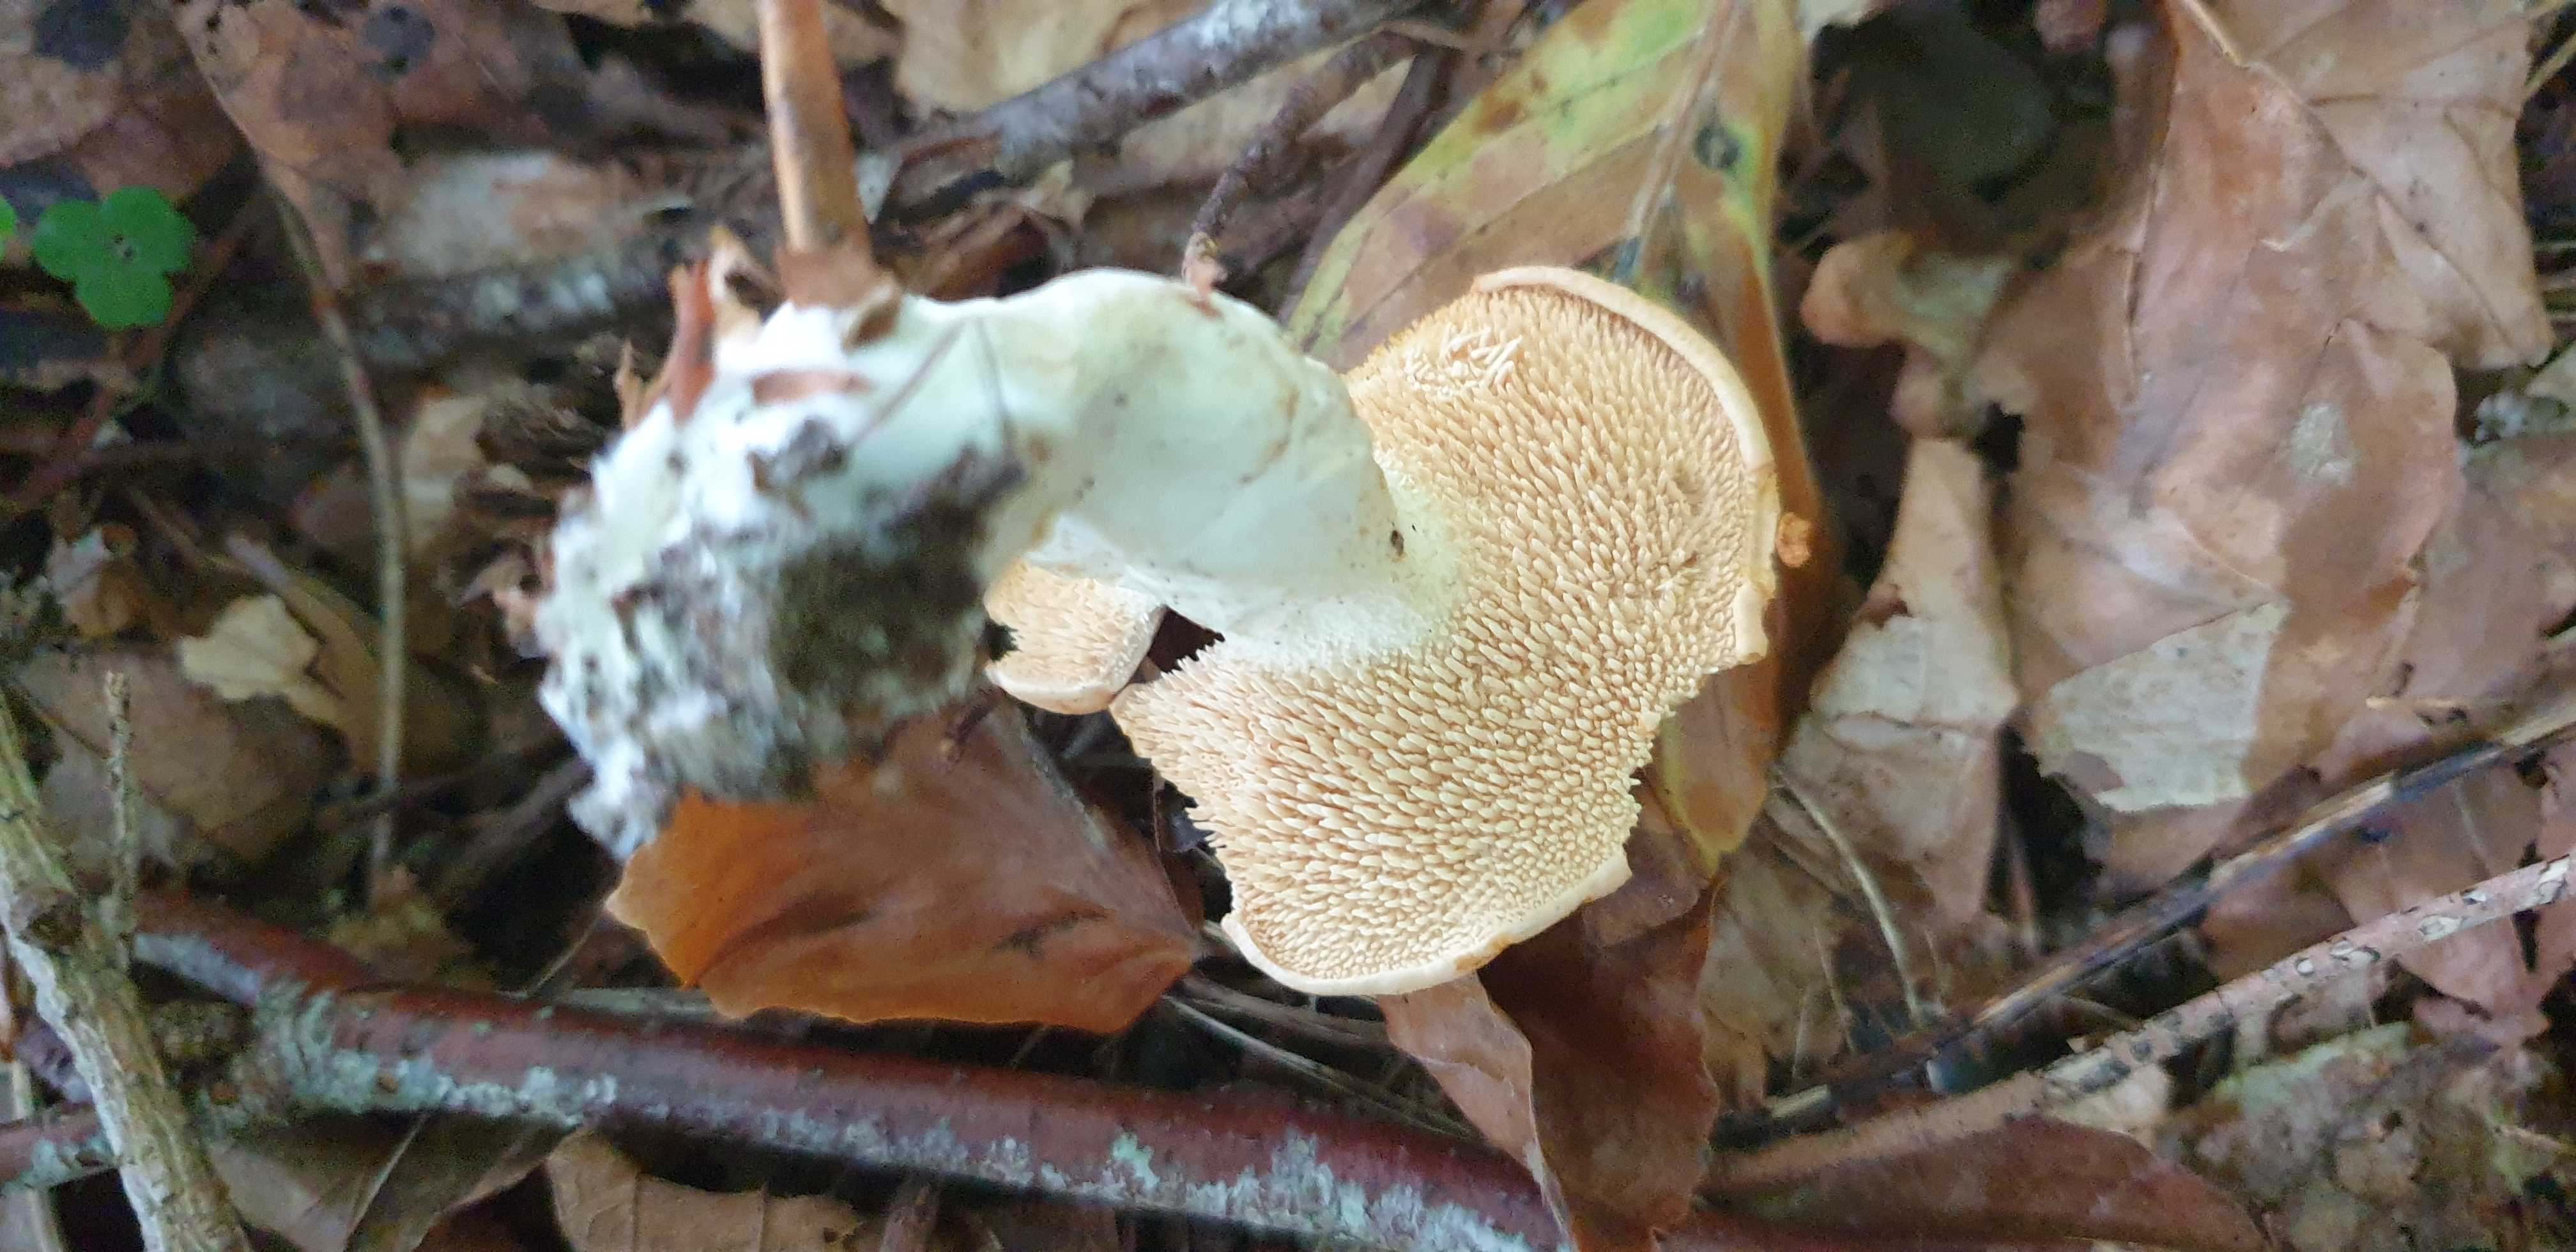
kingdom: Fungi
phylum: Basidiomycota
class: Agaricomycetes
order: Cantharellales
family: Hydnaceae
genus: Hydnum
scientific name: Hydnum
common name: pigsvamp
